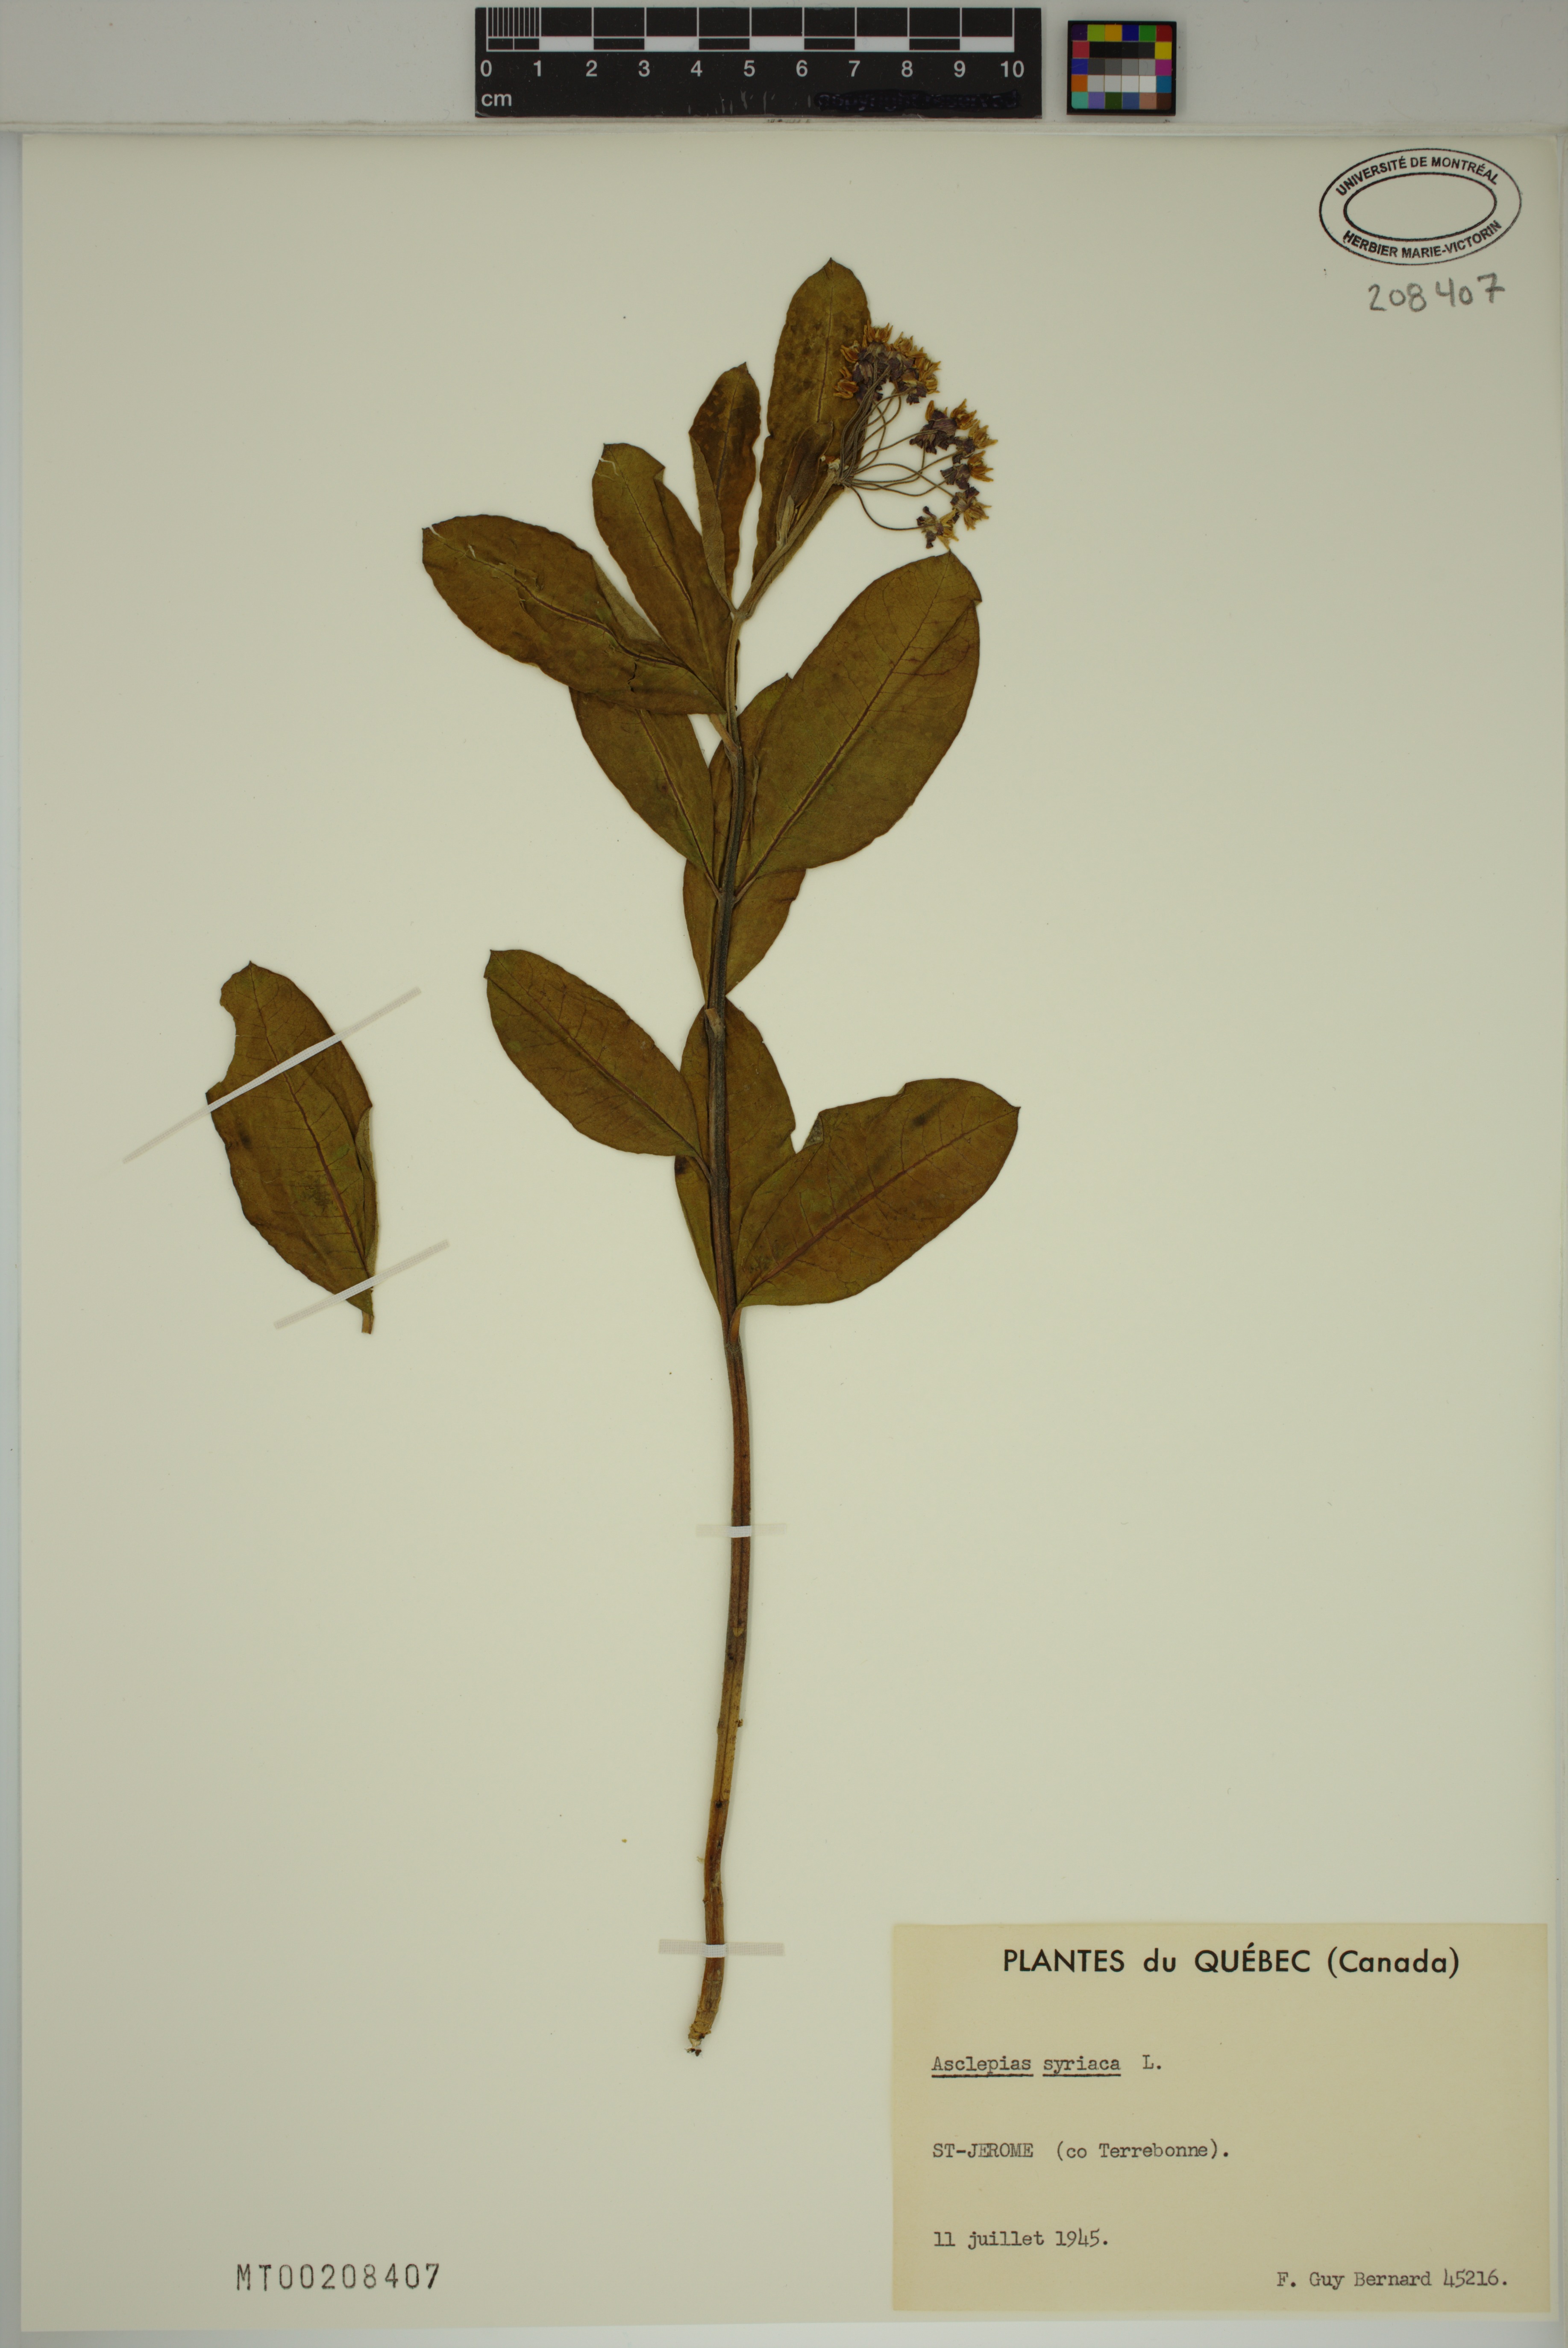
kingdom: Plantae
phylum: Tracheophyta
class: Magnoliopsida
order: Gentianales
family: Apocynaceae
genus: Asclepias
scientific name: Asclepias syriaca
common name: Common milkweed
